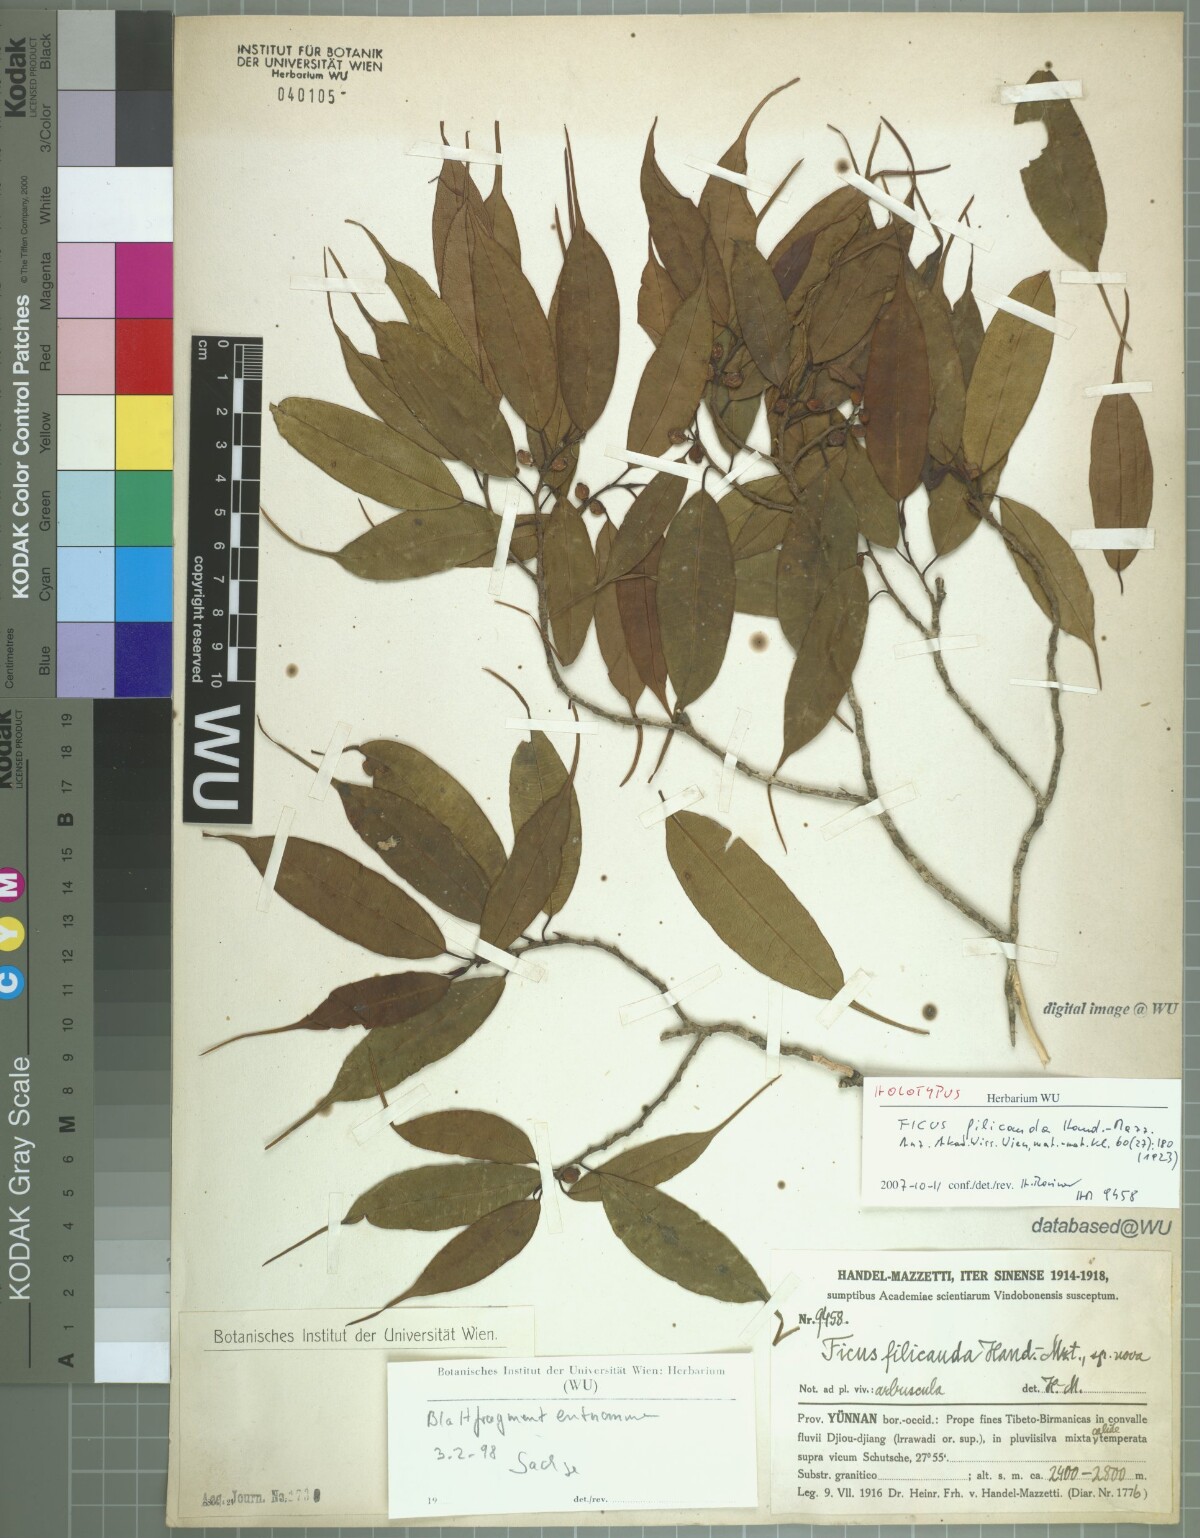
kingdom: Plantae
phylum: Tracheophyta
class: Magnoliopsida
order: Rosales
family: Moraceae
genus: Ficus
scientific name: Ficus filicauda
